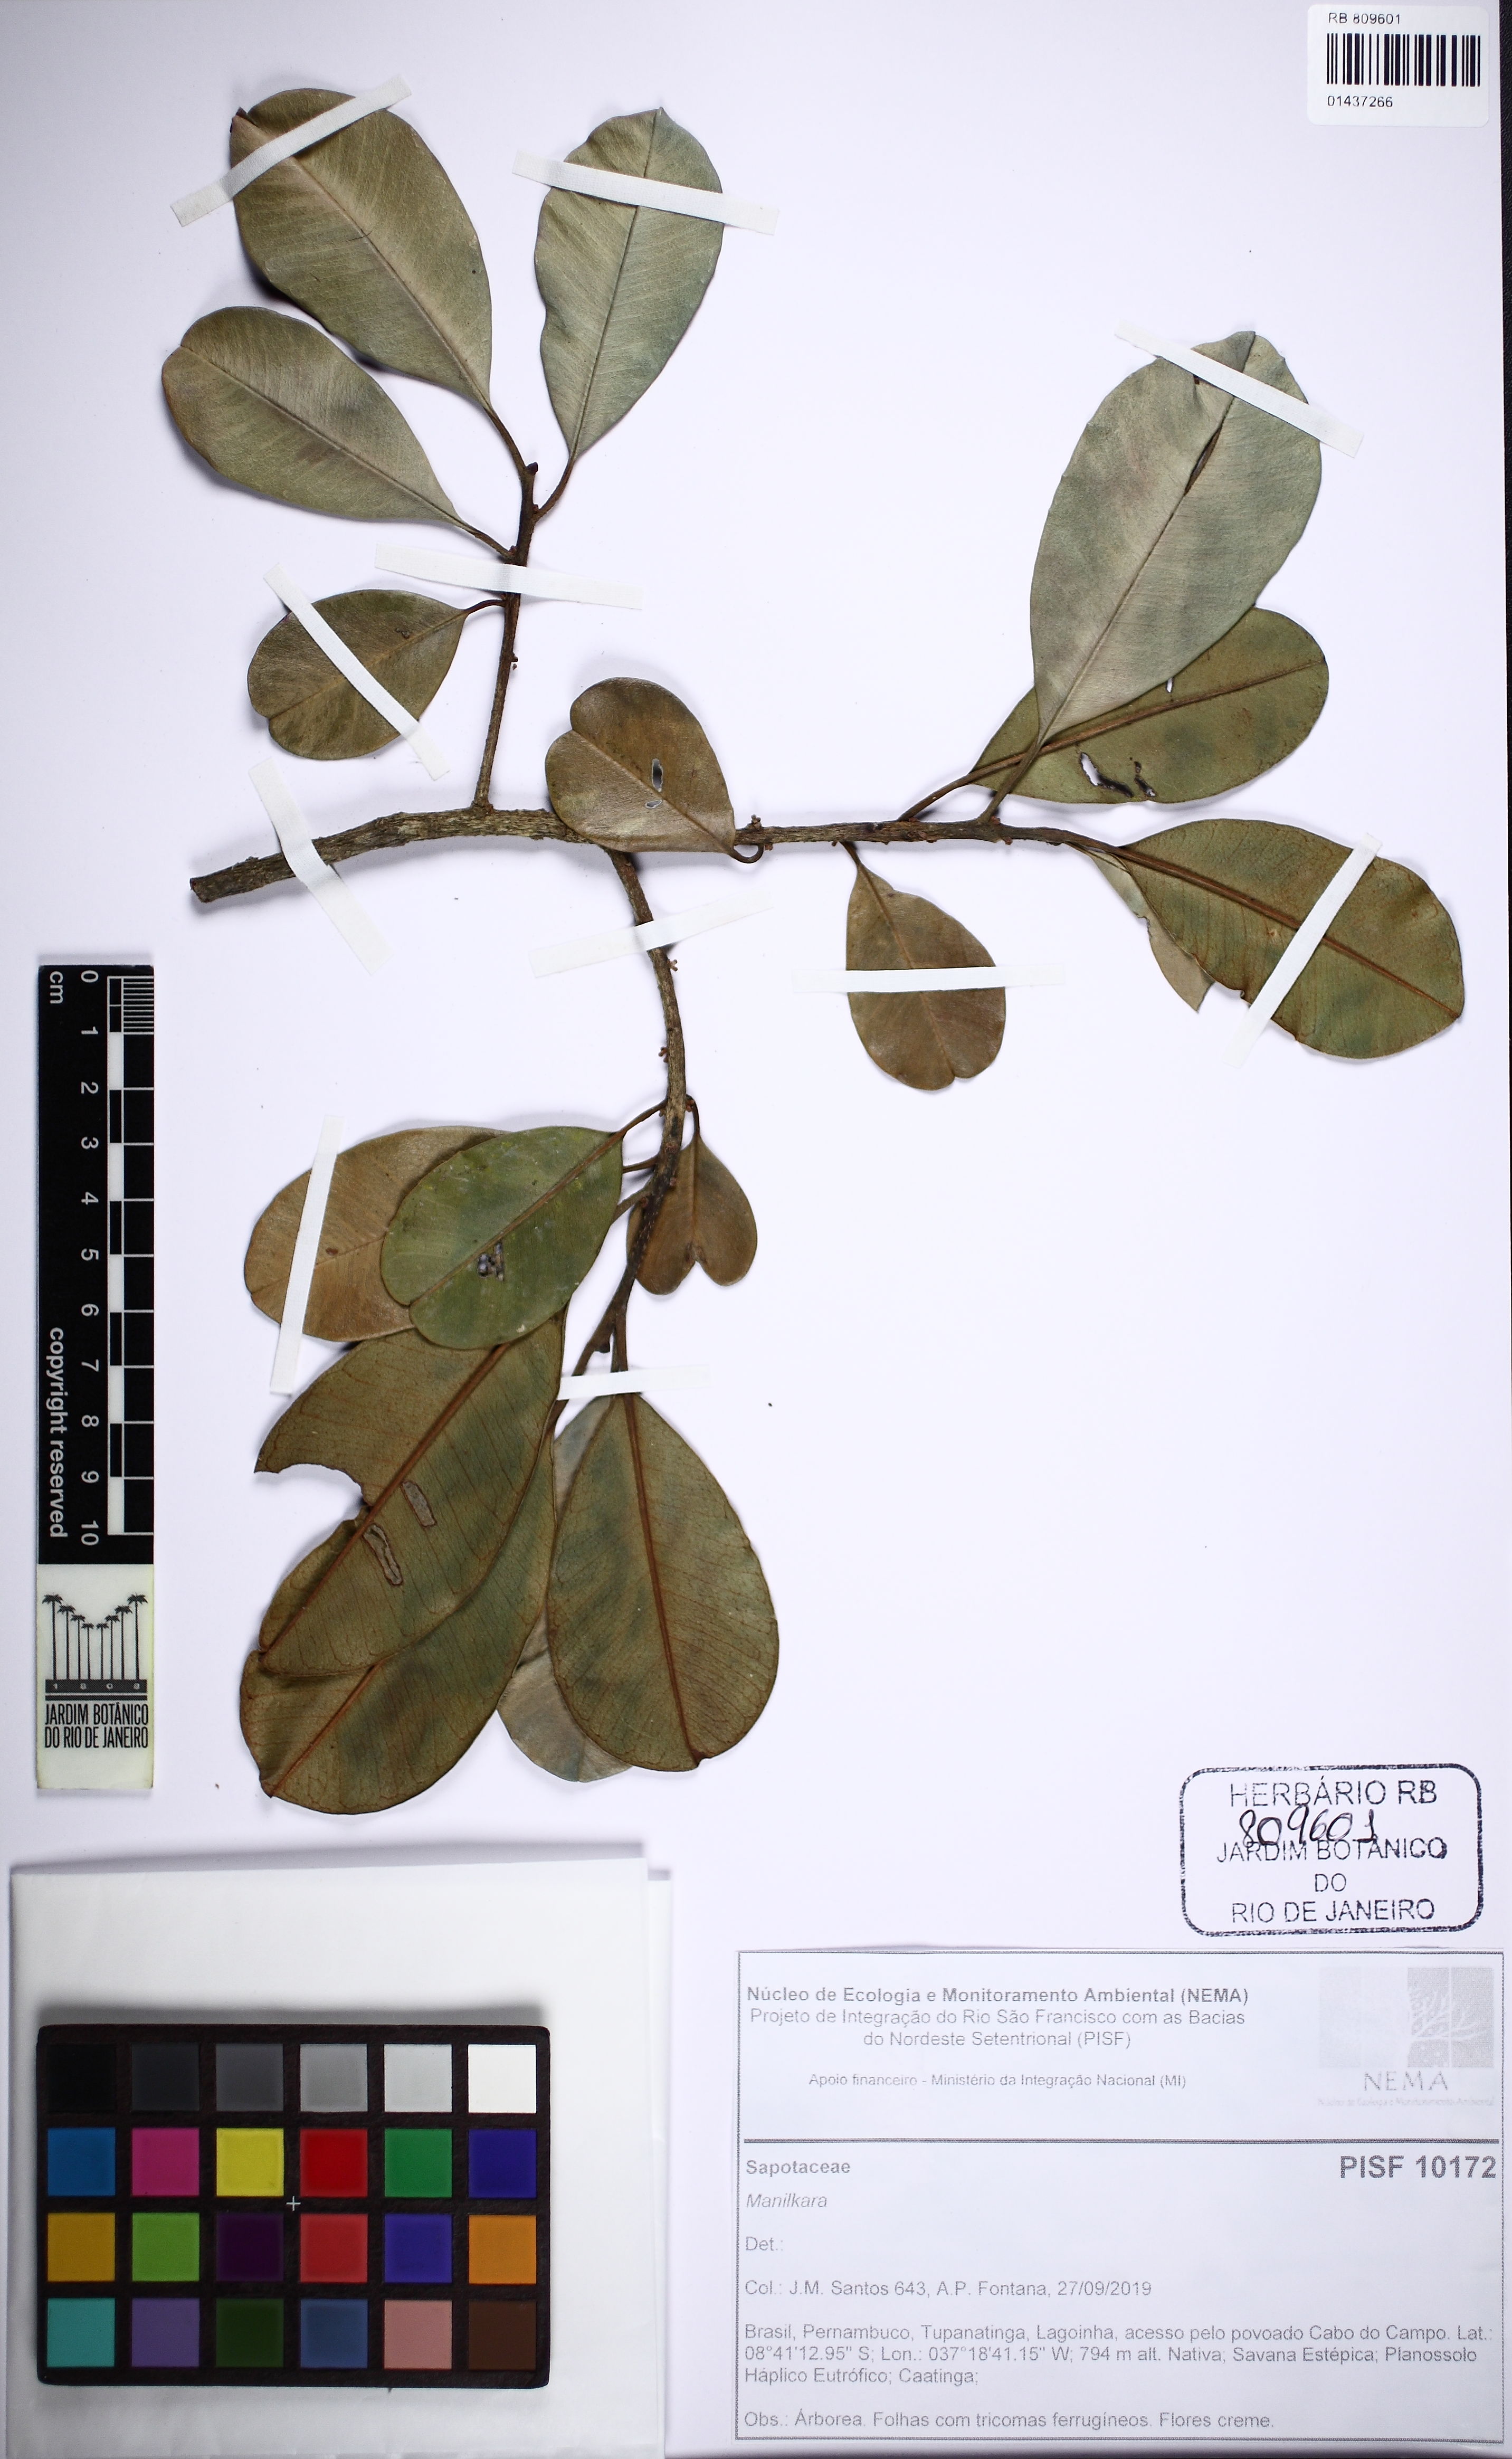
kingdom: Plantae
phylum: Tracheophyta
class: Magnoliopsida
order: Ericales
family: Sapotaceae
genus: Manilkara
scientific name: Manilkara
